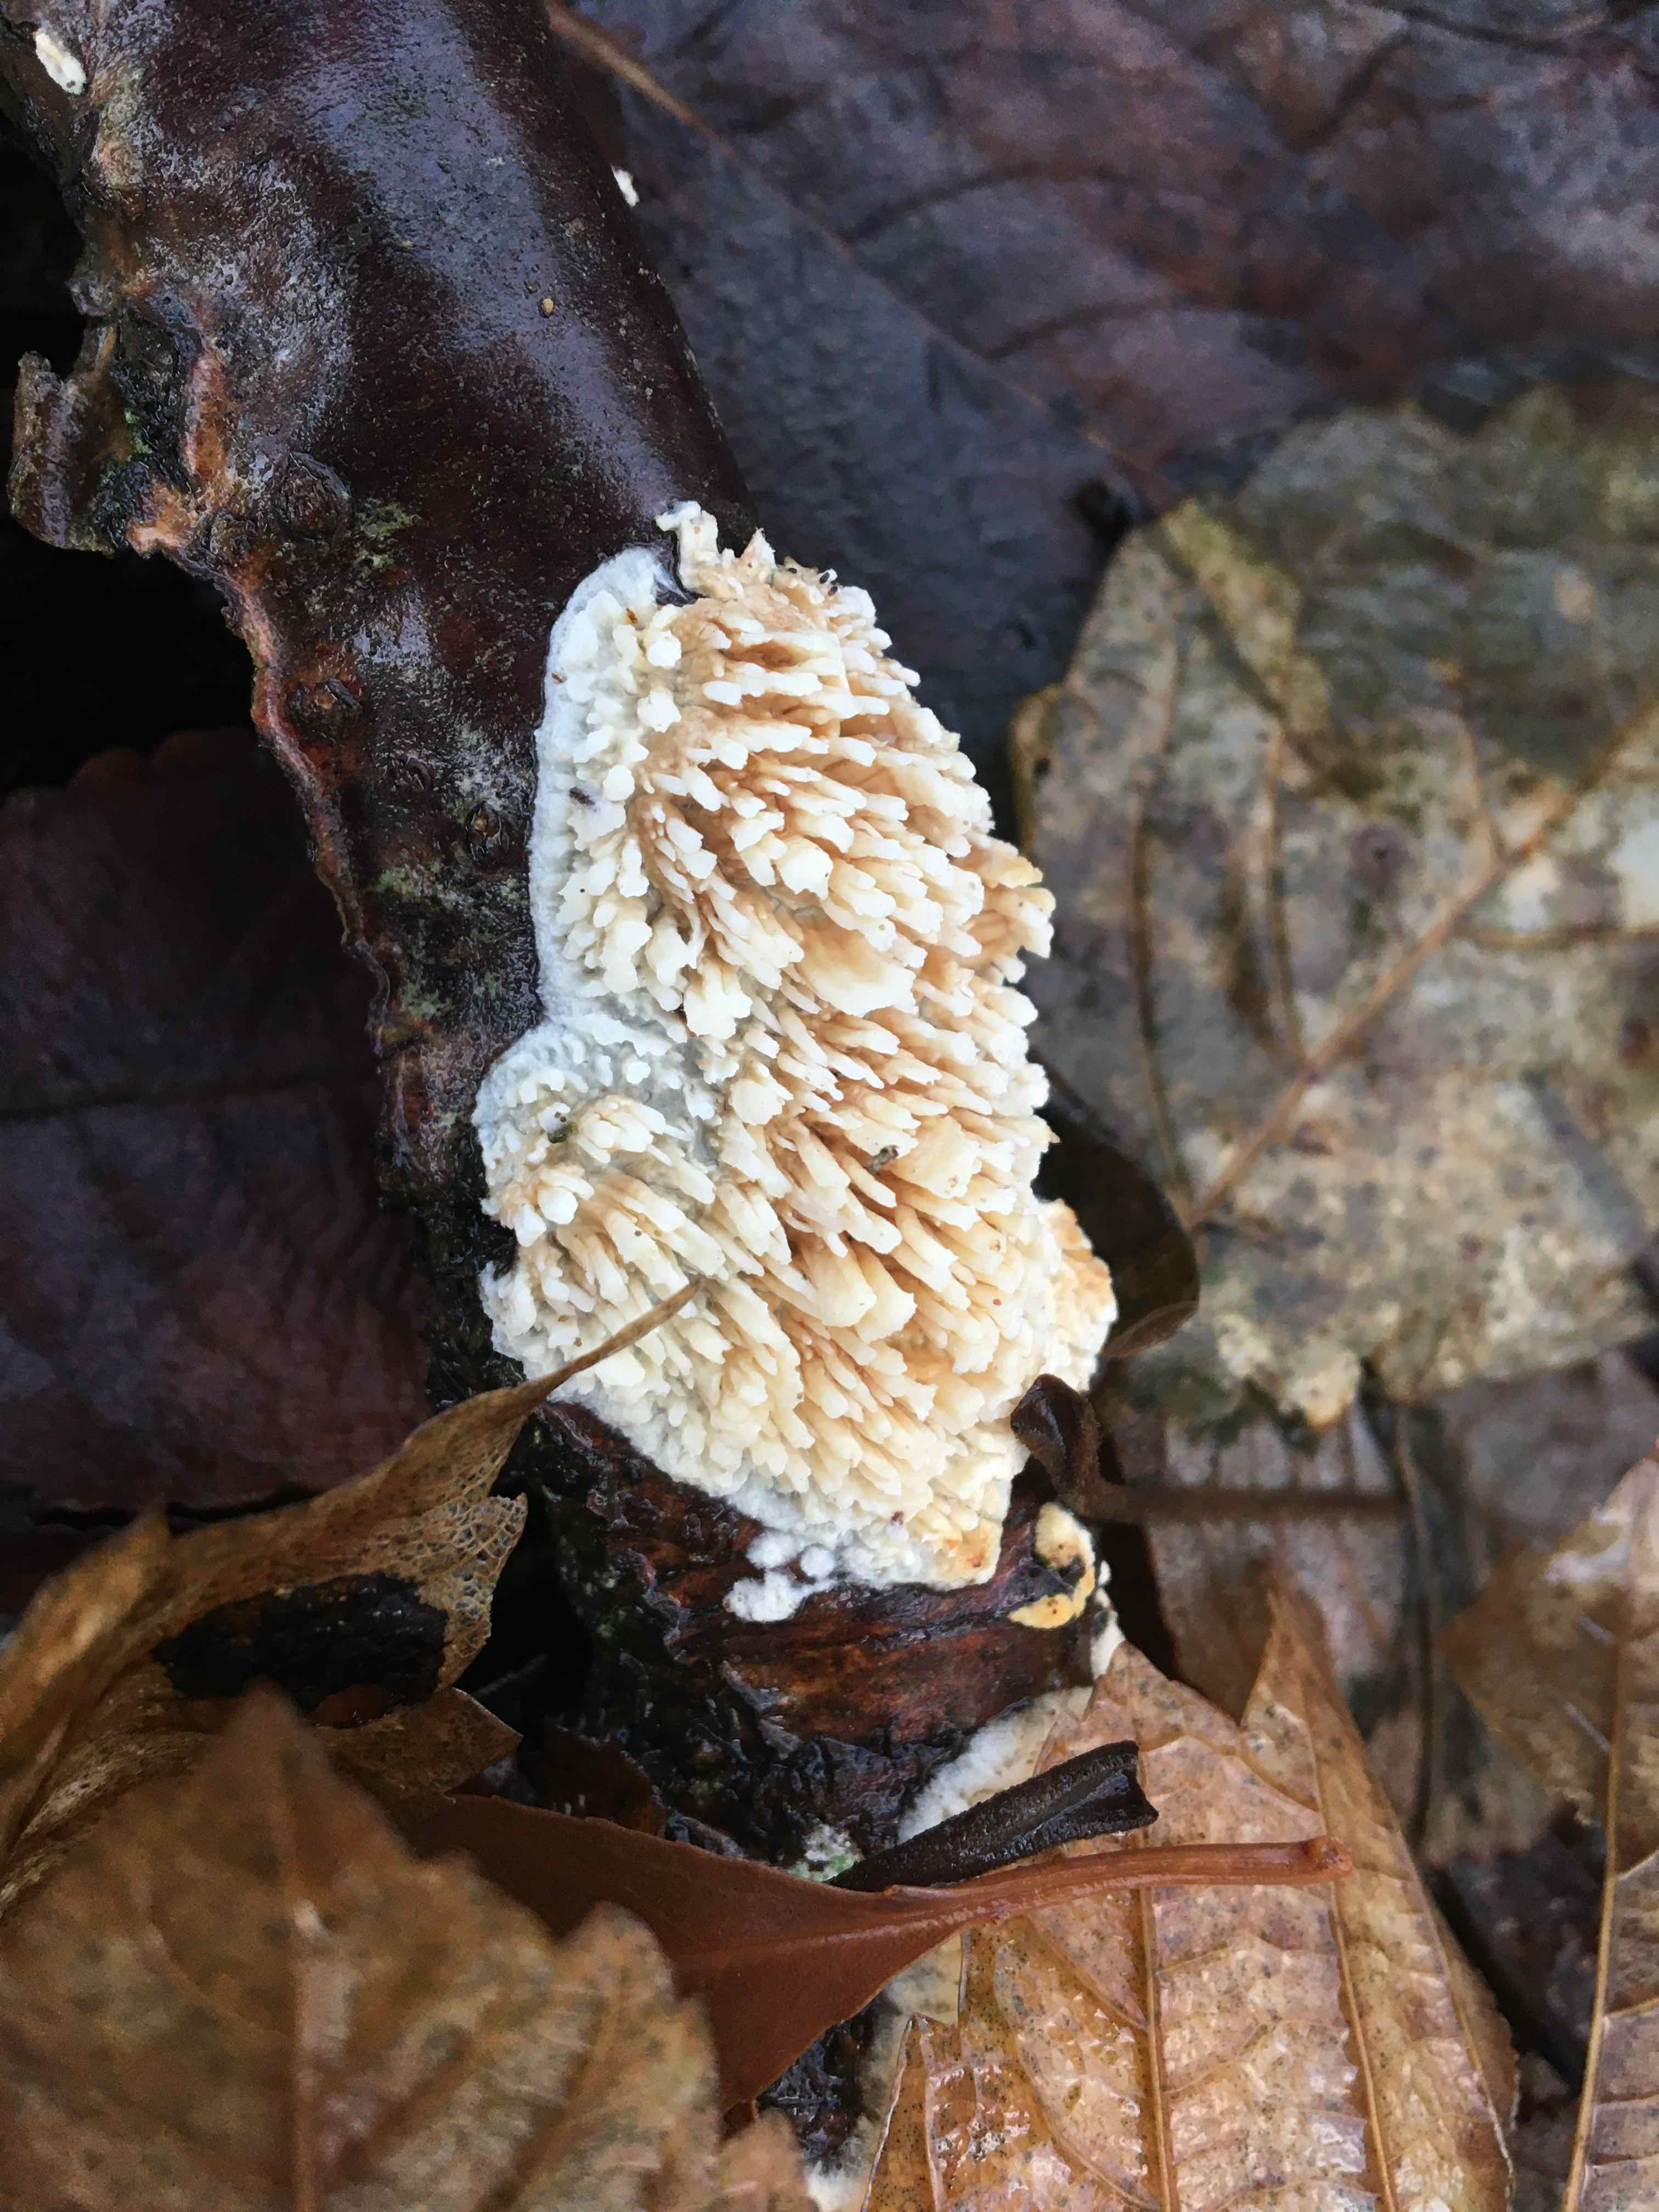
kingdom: Fungi
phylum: Basidiomycota
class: Agaricomycetes
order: Hymenochaetales
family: Schizoporaceae
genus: Xylodon
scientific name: Xylodon radula
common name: grovtandet kalkskind
